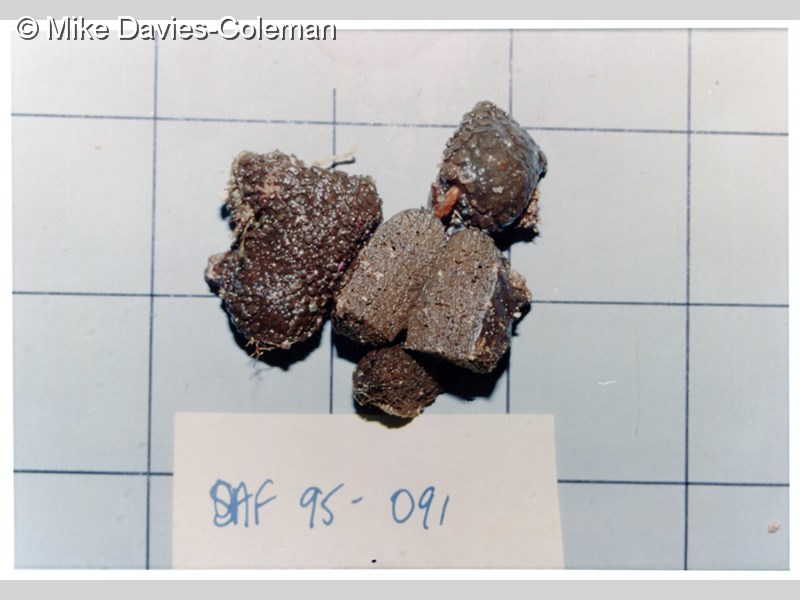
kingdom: Animalia
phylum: Porifera
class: Demospongiae
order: Poecilosclerida
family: Acarnidae
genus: Cornulum
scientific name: Cornulum
